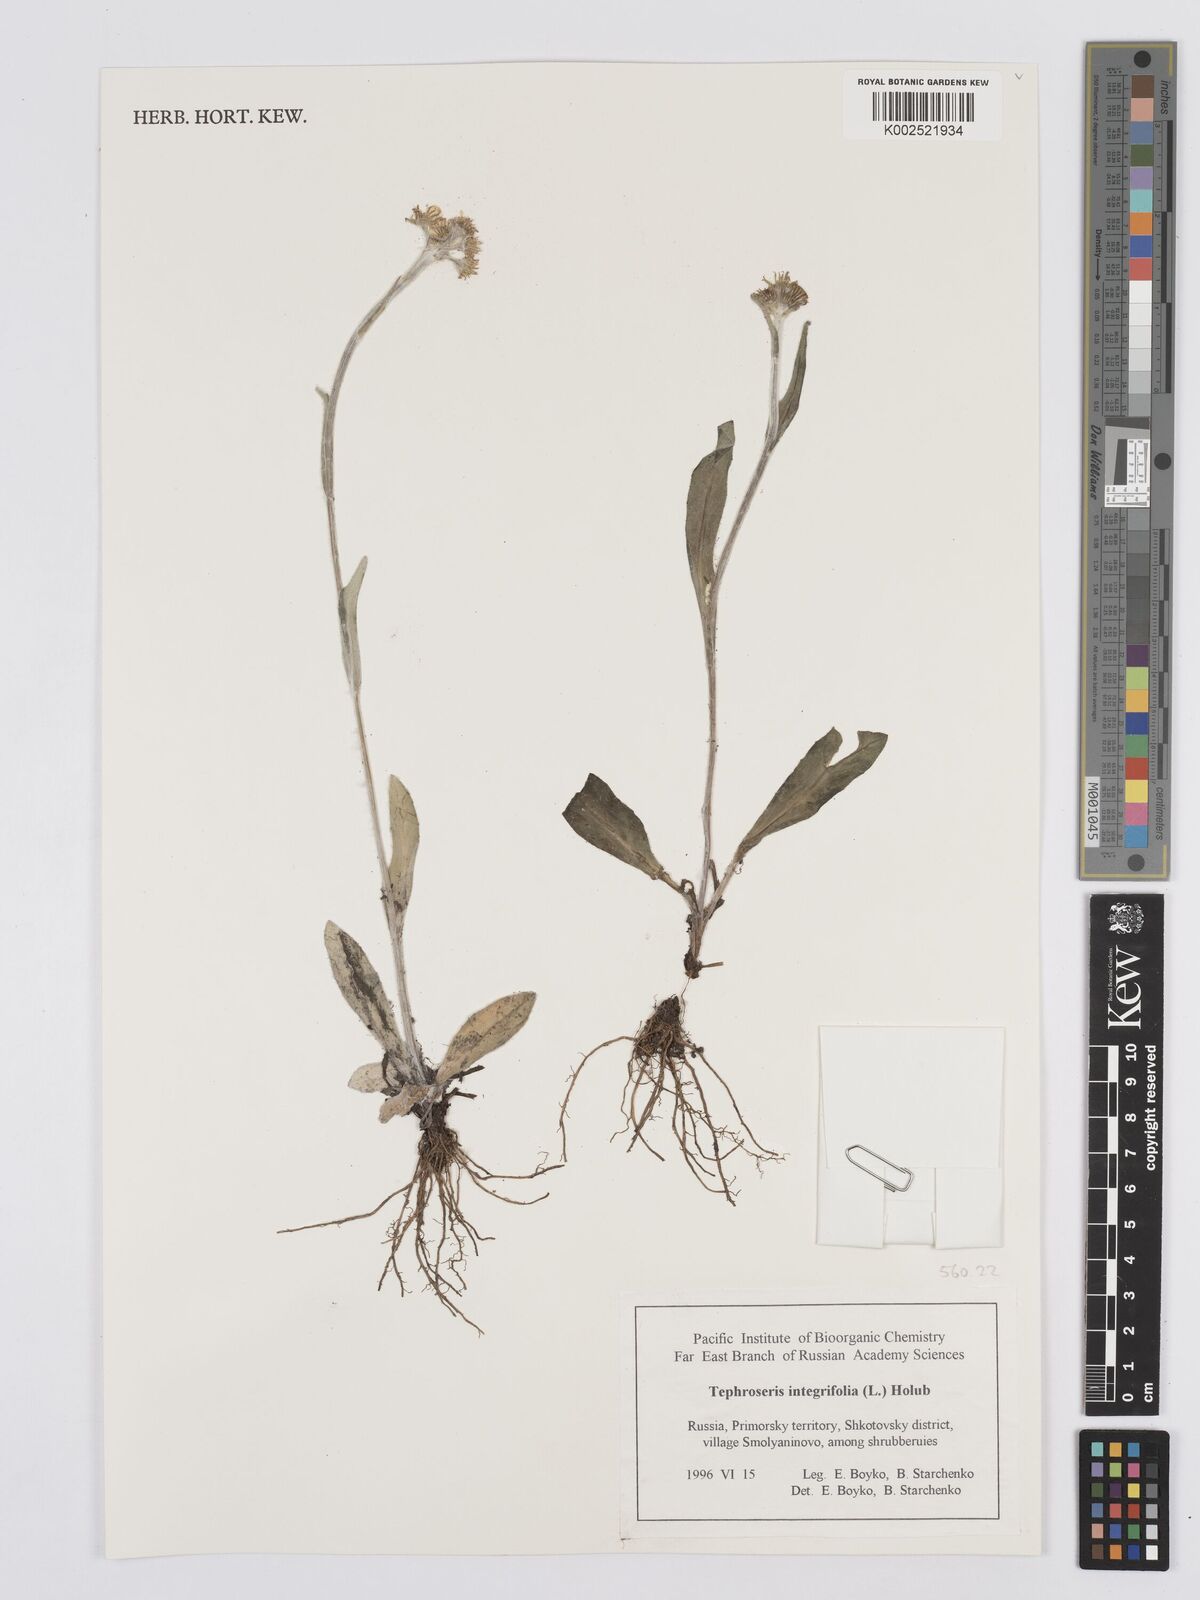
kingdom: Plantae
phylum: Tracheophyta
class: Magnoliopsida
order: Asterales
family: Asteraceae
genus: Tephroseris
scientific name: Tephroseris integrifolia
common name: Field fleawort
